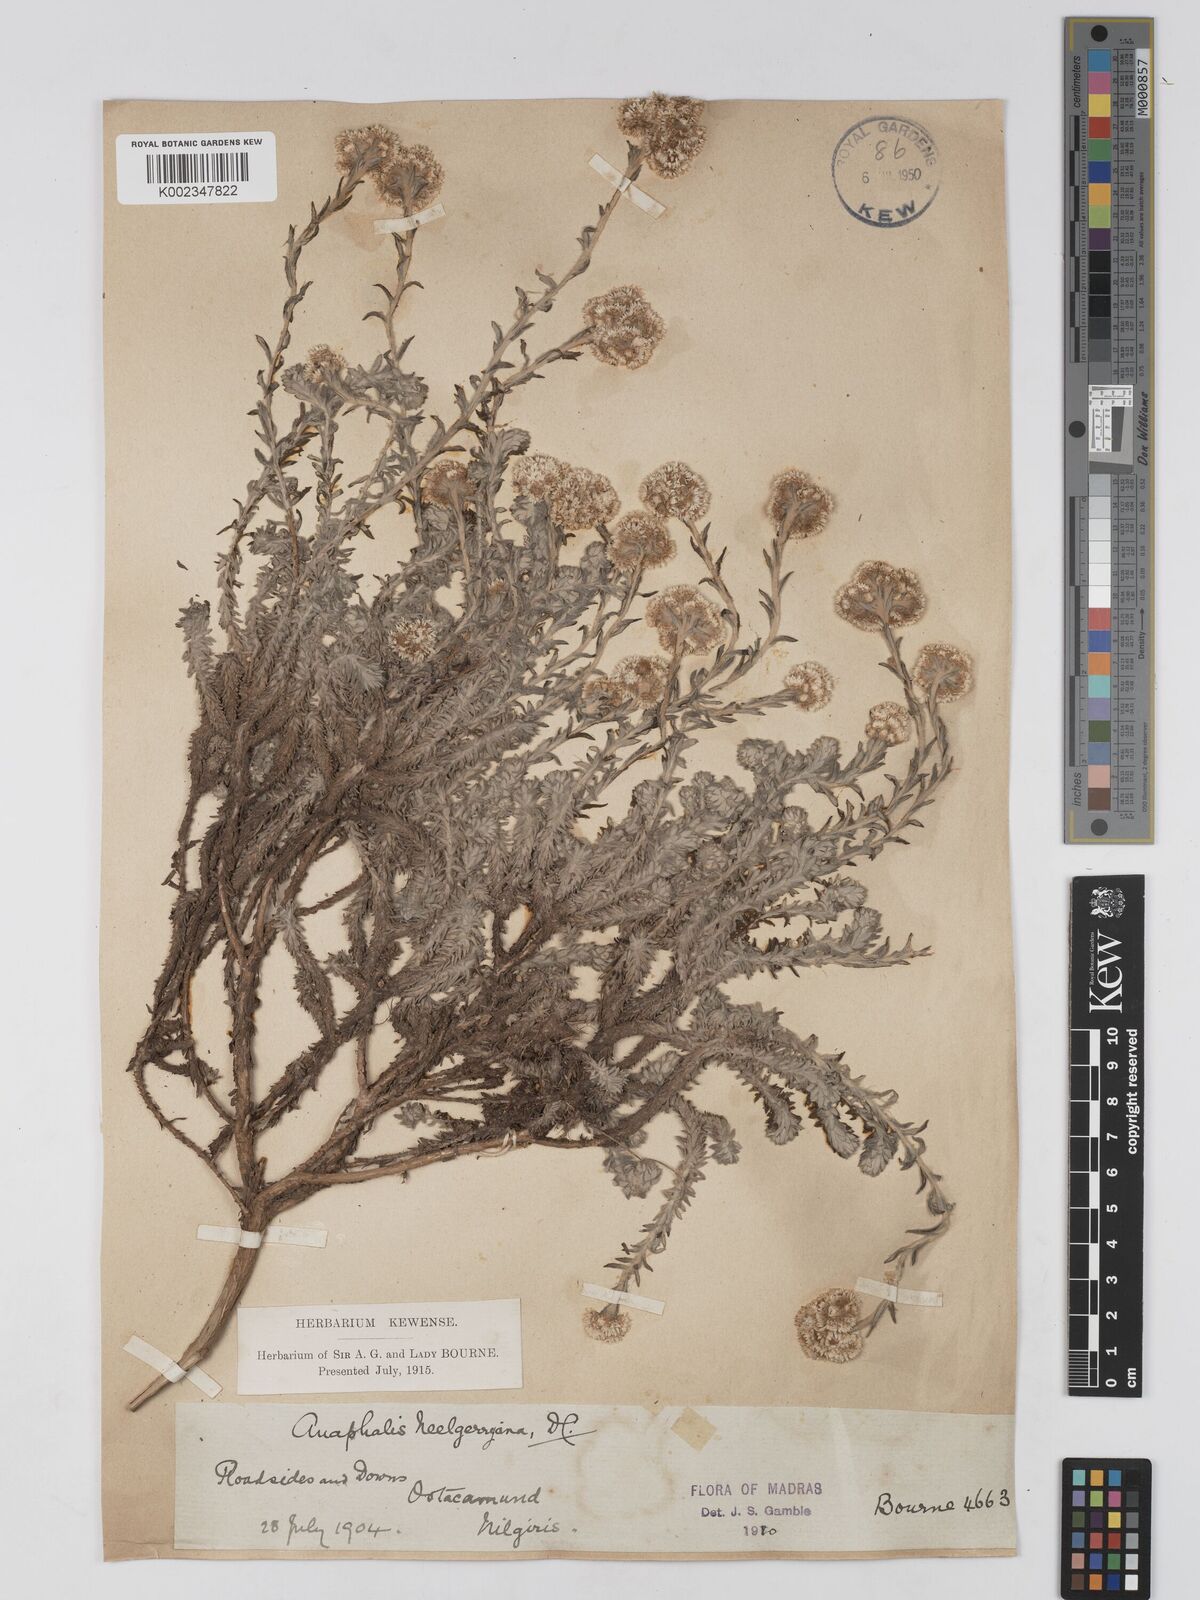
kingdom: Plantae
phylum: Tracheophyta
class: Magnoliopsida
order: Asterales
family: Asteraceae
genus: Anaphalis
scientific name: Anaphalis neelgerryana
